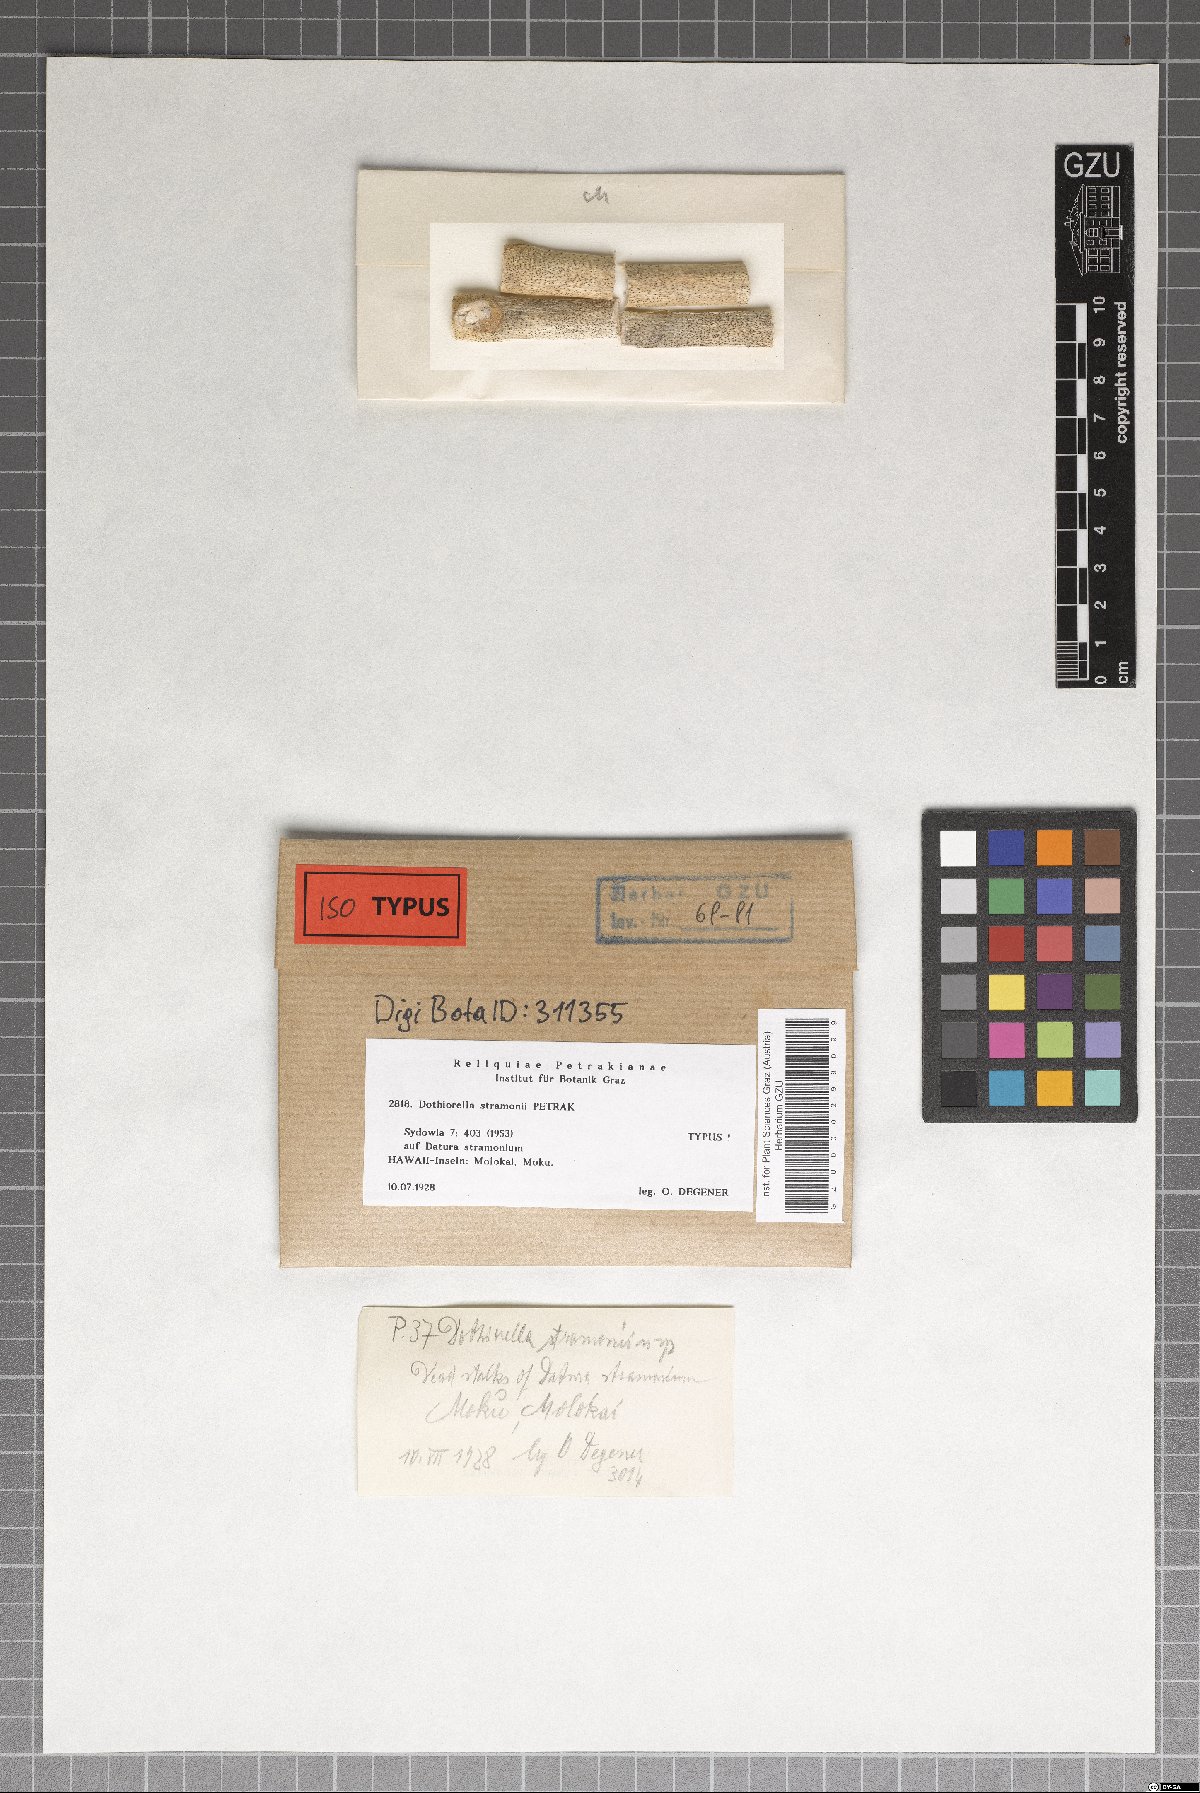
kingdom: Fungi
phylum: Ascomycota
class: Dothideomycetes
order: Botryosphaeriales
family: Botryosphaeriaceae
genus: Dothiorella
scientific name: Dothiorella stramonii
